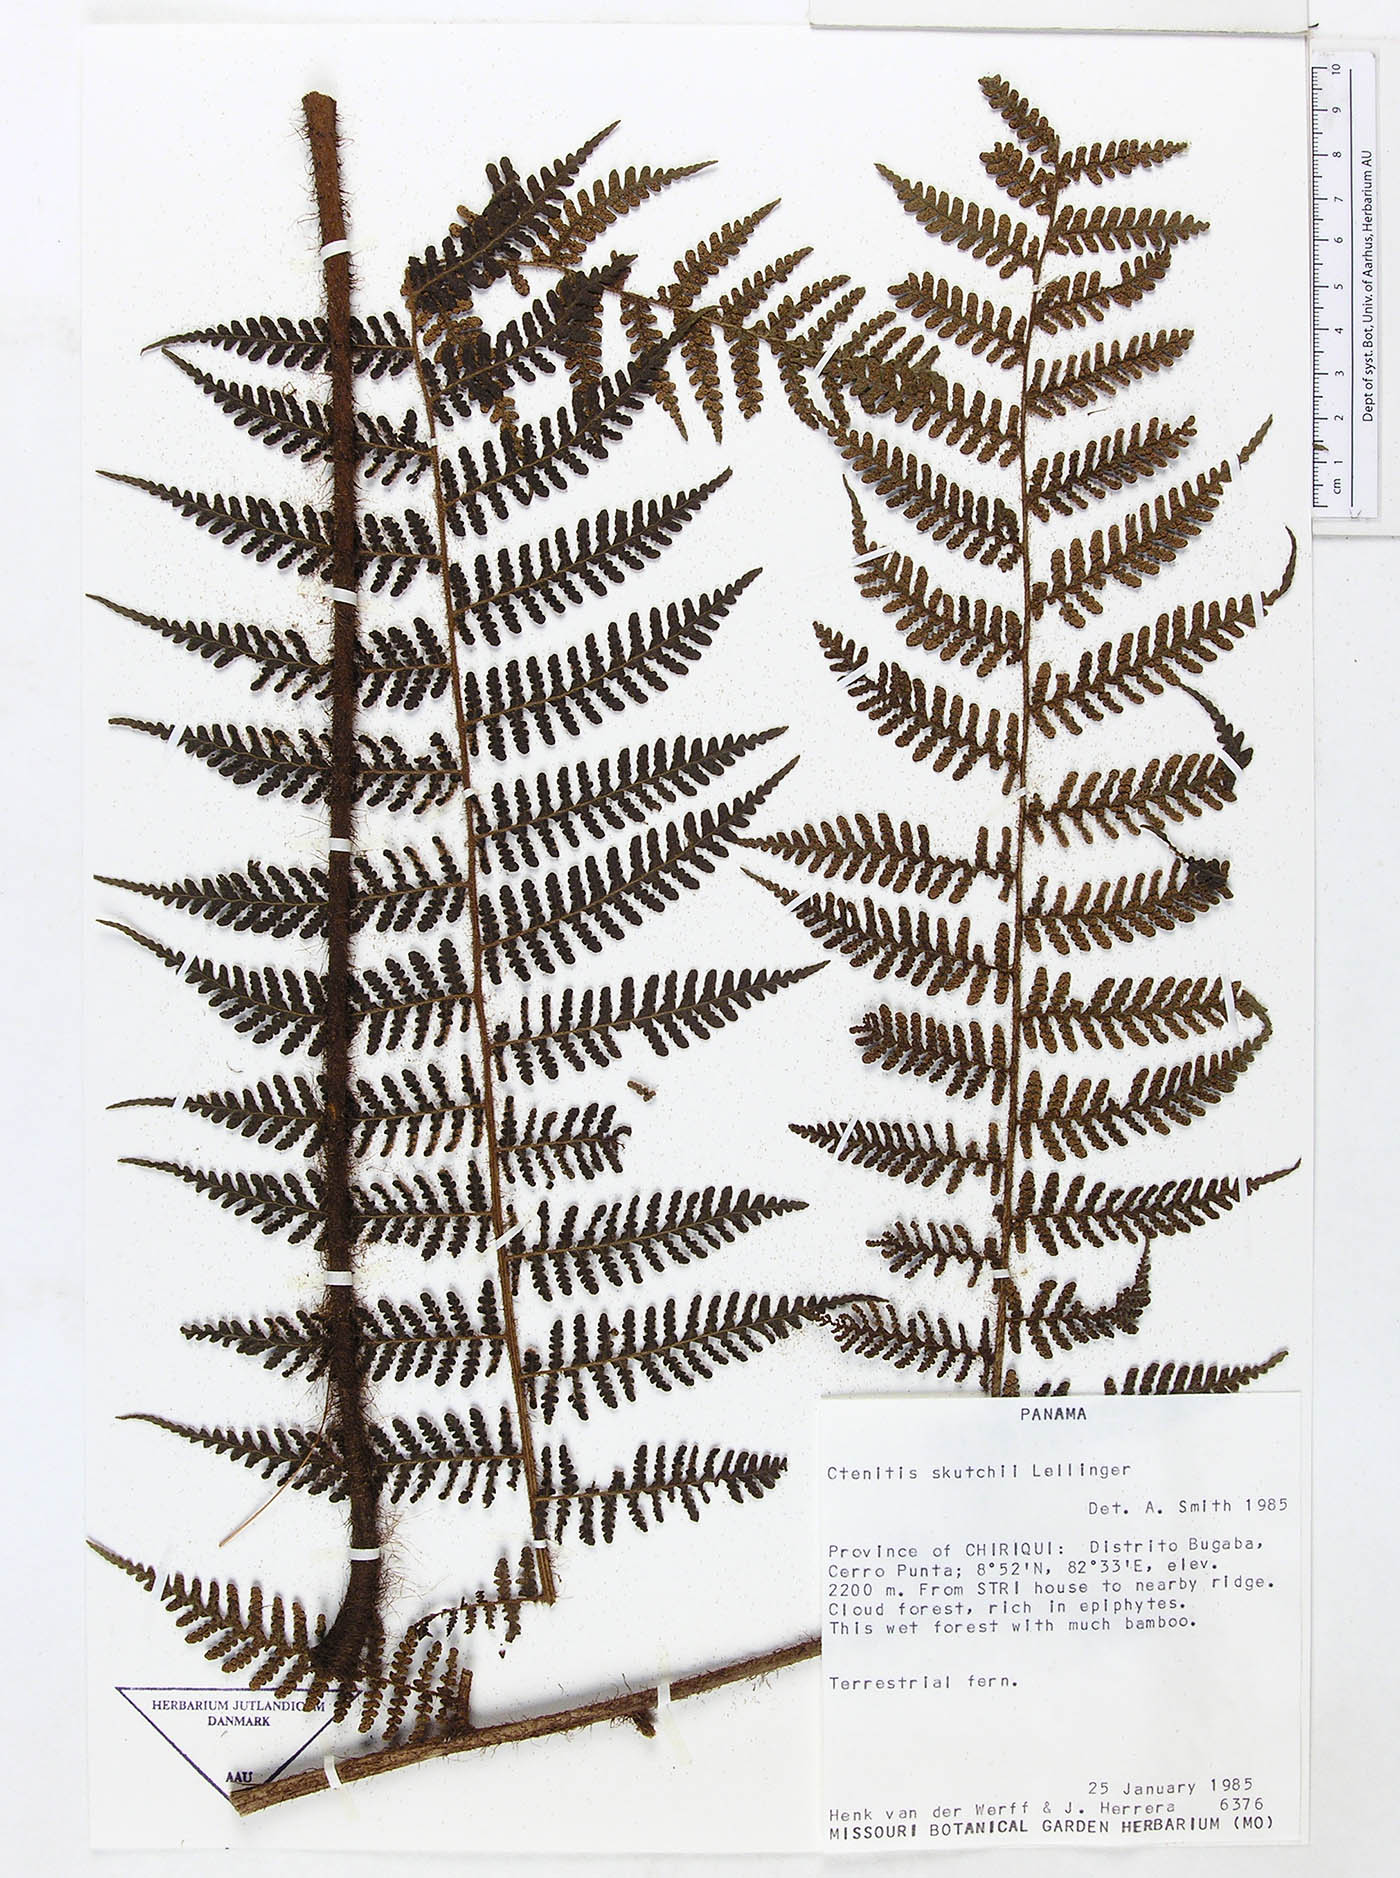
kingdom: Plantae
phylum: Tracheophyta
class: Polypodiopsida
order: Polypodiales
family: Dryopteridaceae
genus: Megalastrum
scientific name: Megalastrum dentatum
